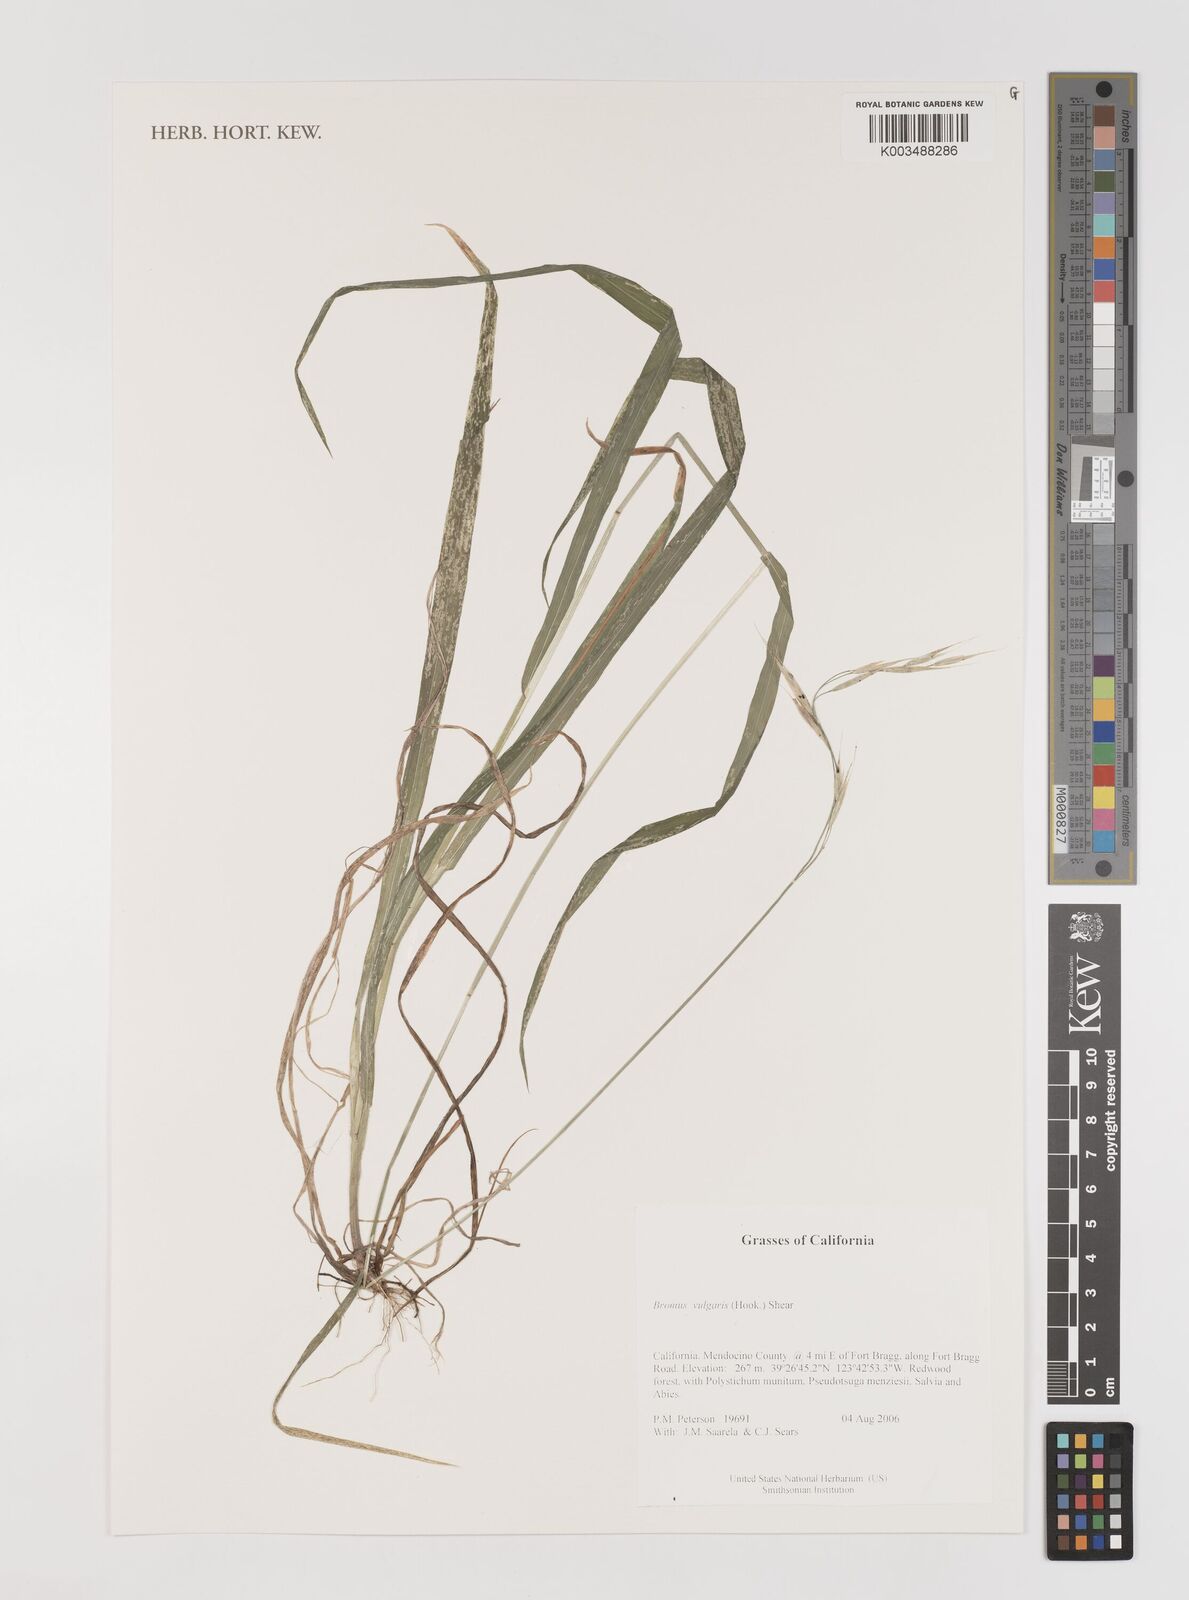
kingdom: Plantae
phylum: Tracheophyta
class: Liliopsida
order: Poales
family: Poaceae
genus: Bromus
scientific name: Bromus vulgaris
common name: Columbia brome
